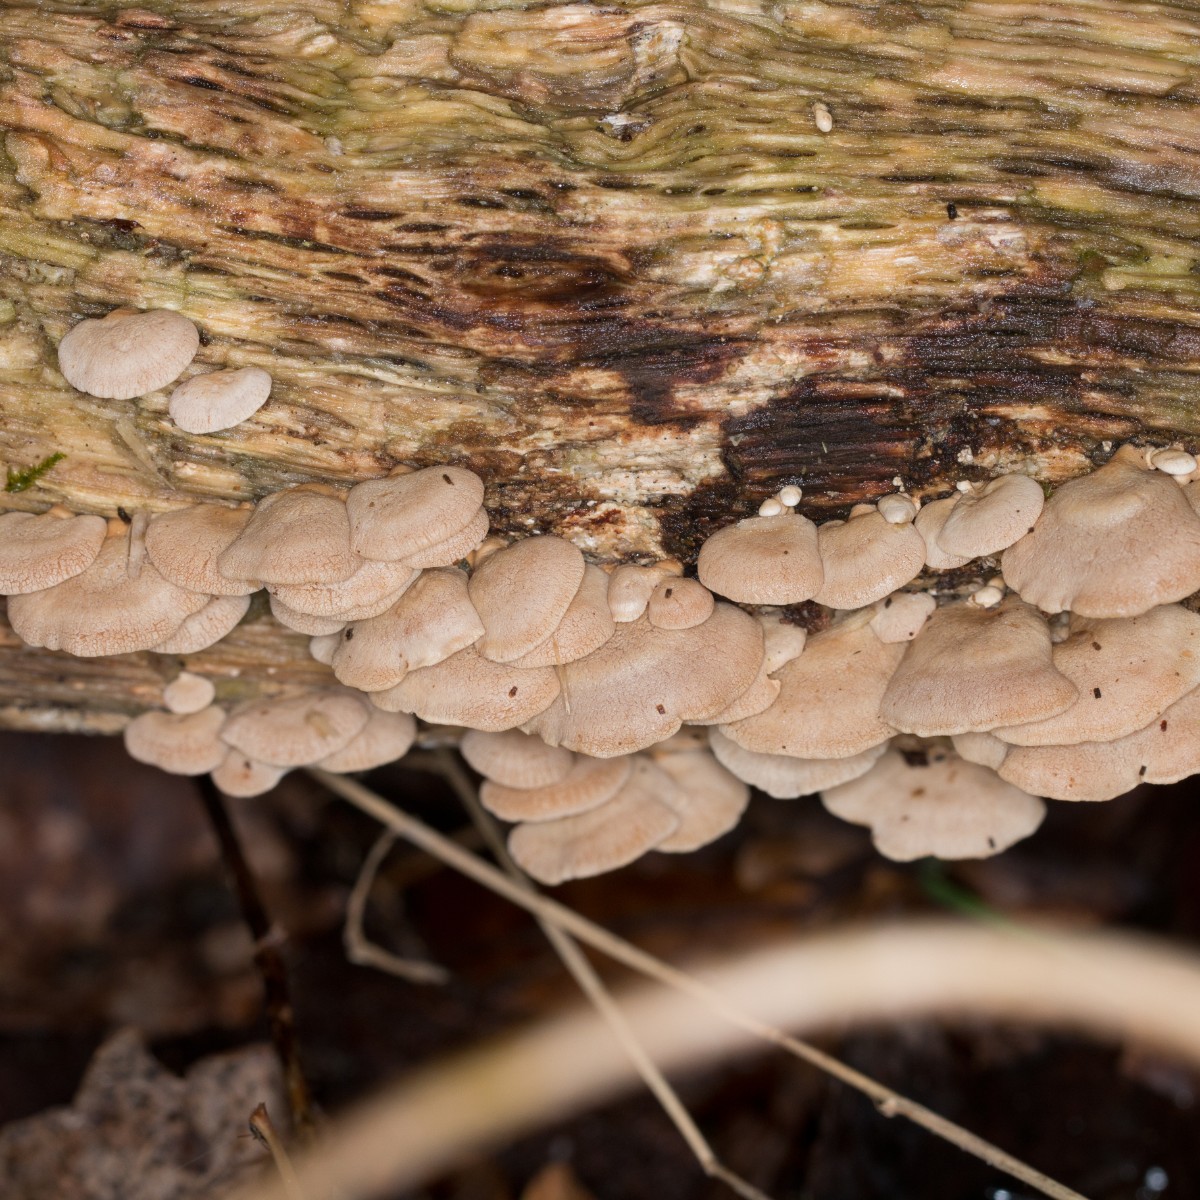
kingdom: Fungi
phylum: Basidiomycota
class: Agaricomycetes
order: Agaricales
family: Mycenaceae
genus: Panellus
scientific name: Panellus stipticus
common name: kliddet epaulethat
